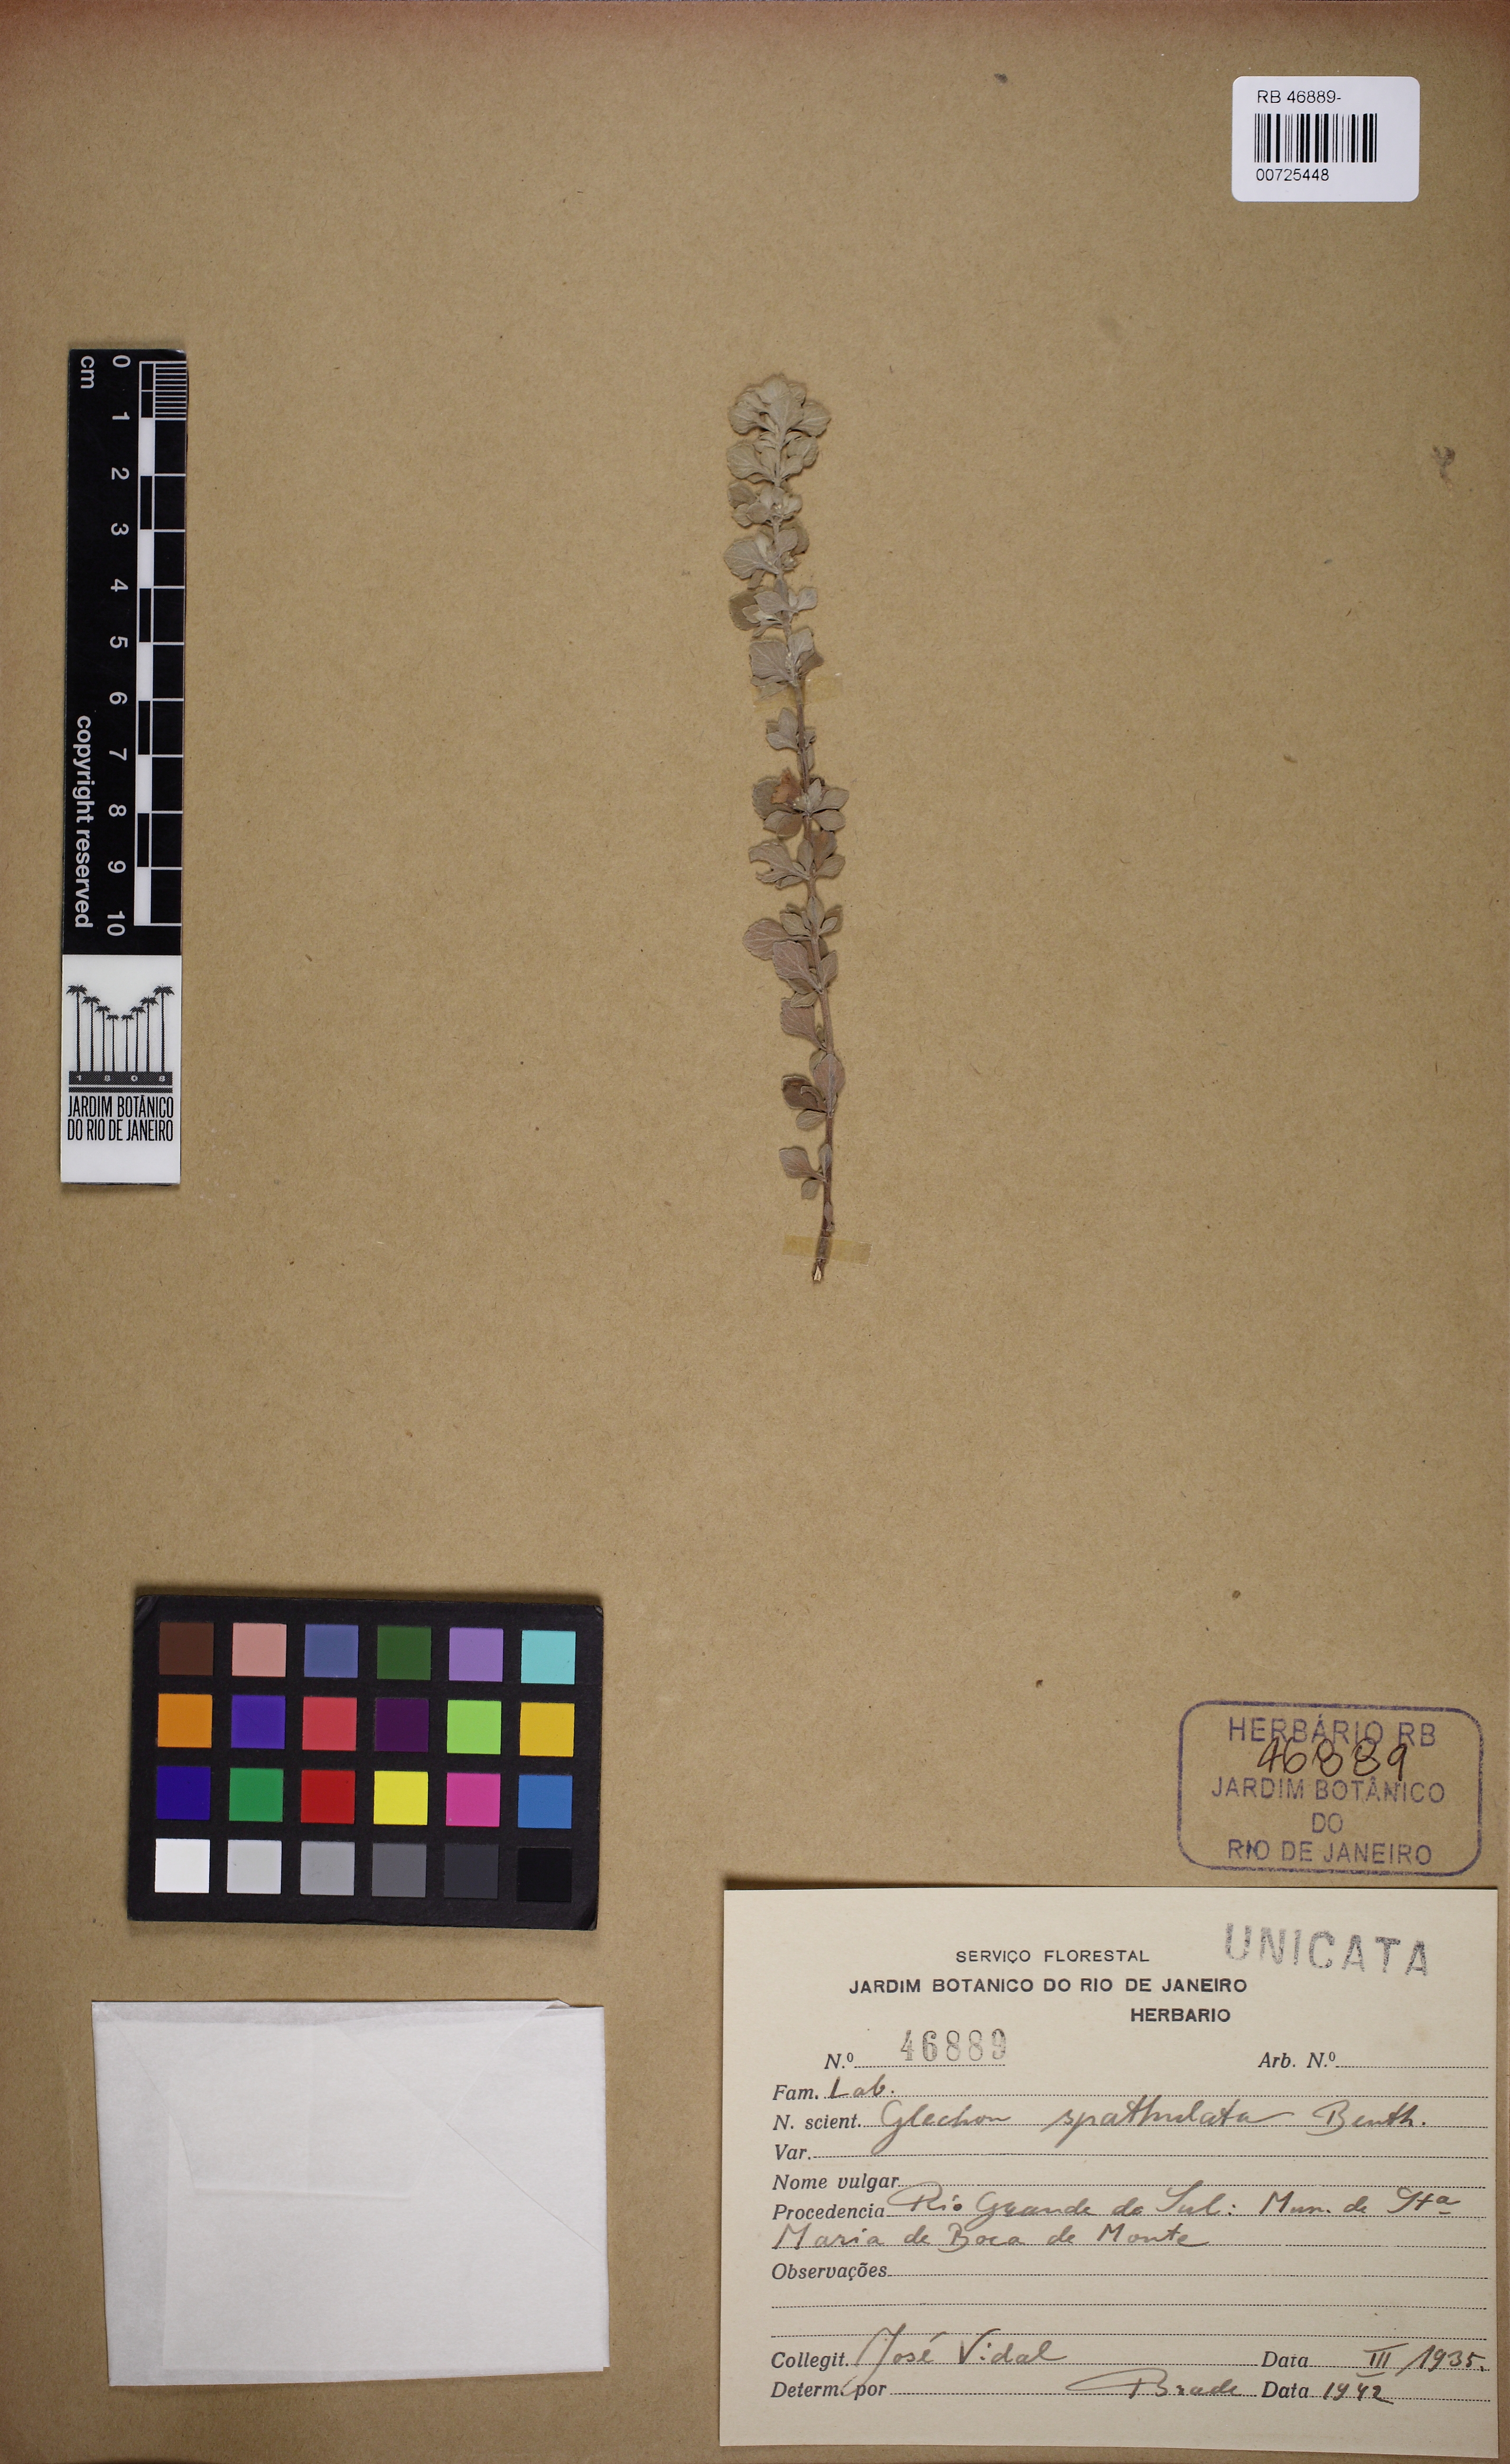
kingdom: Plantae
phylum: Tracheophyta
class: Magnoliopsida
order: Lamiales
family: Lamiaceae
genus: Glechon
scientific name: Glechon thymoides
